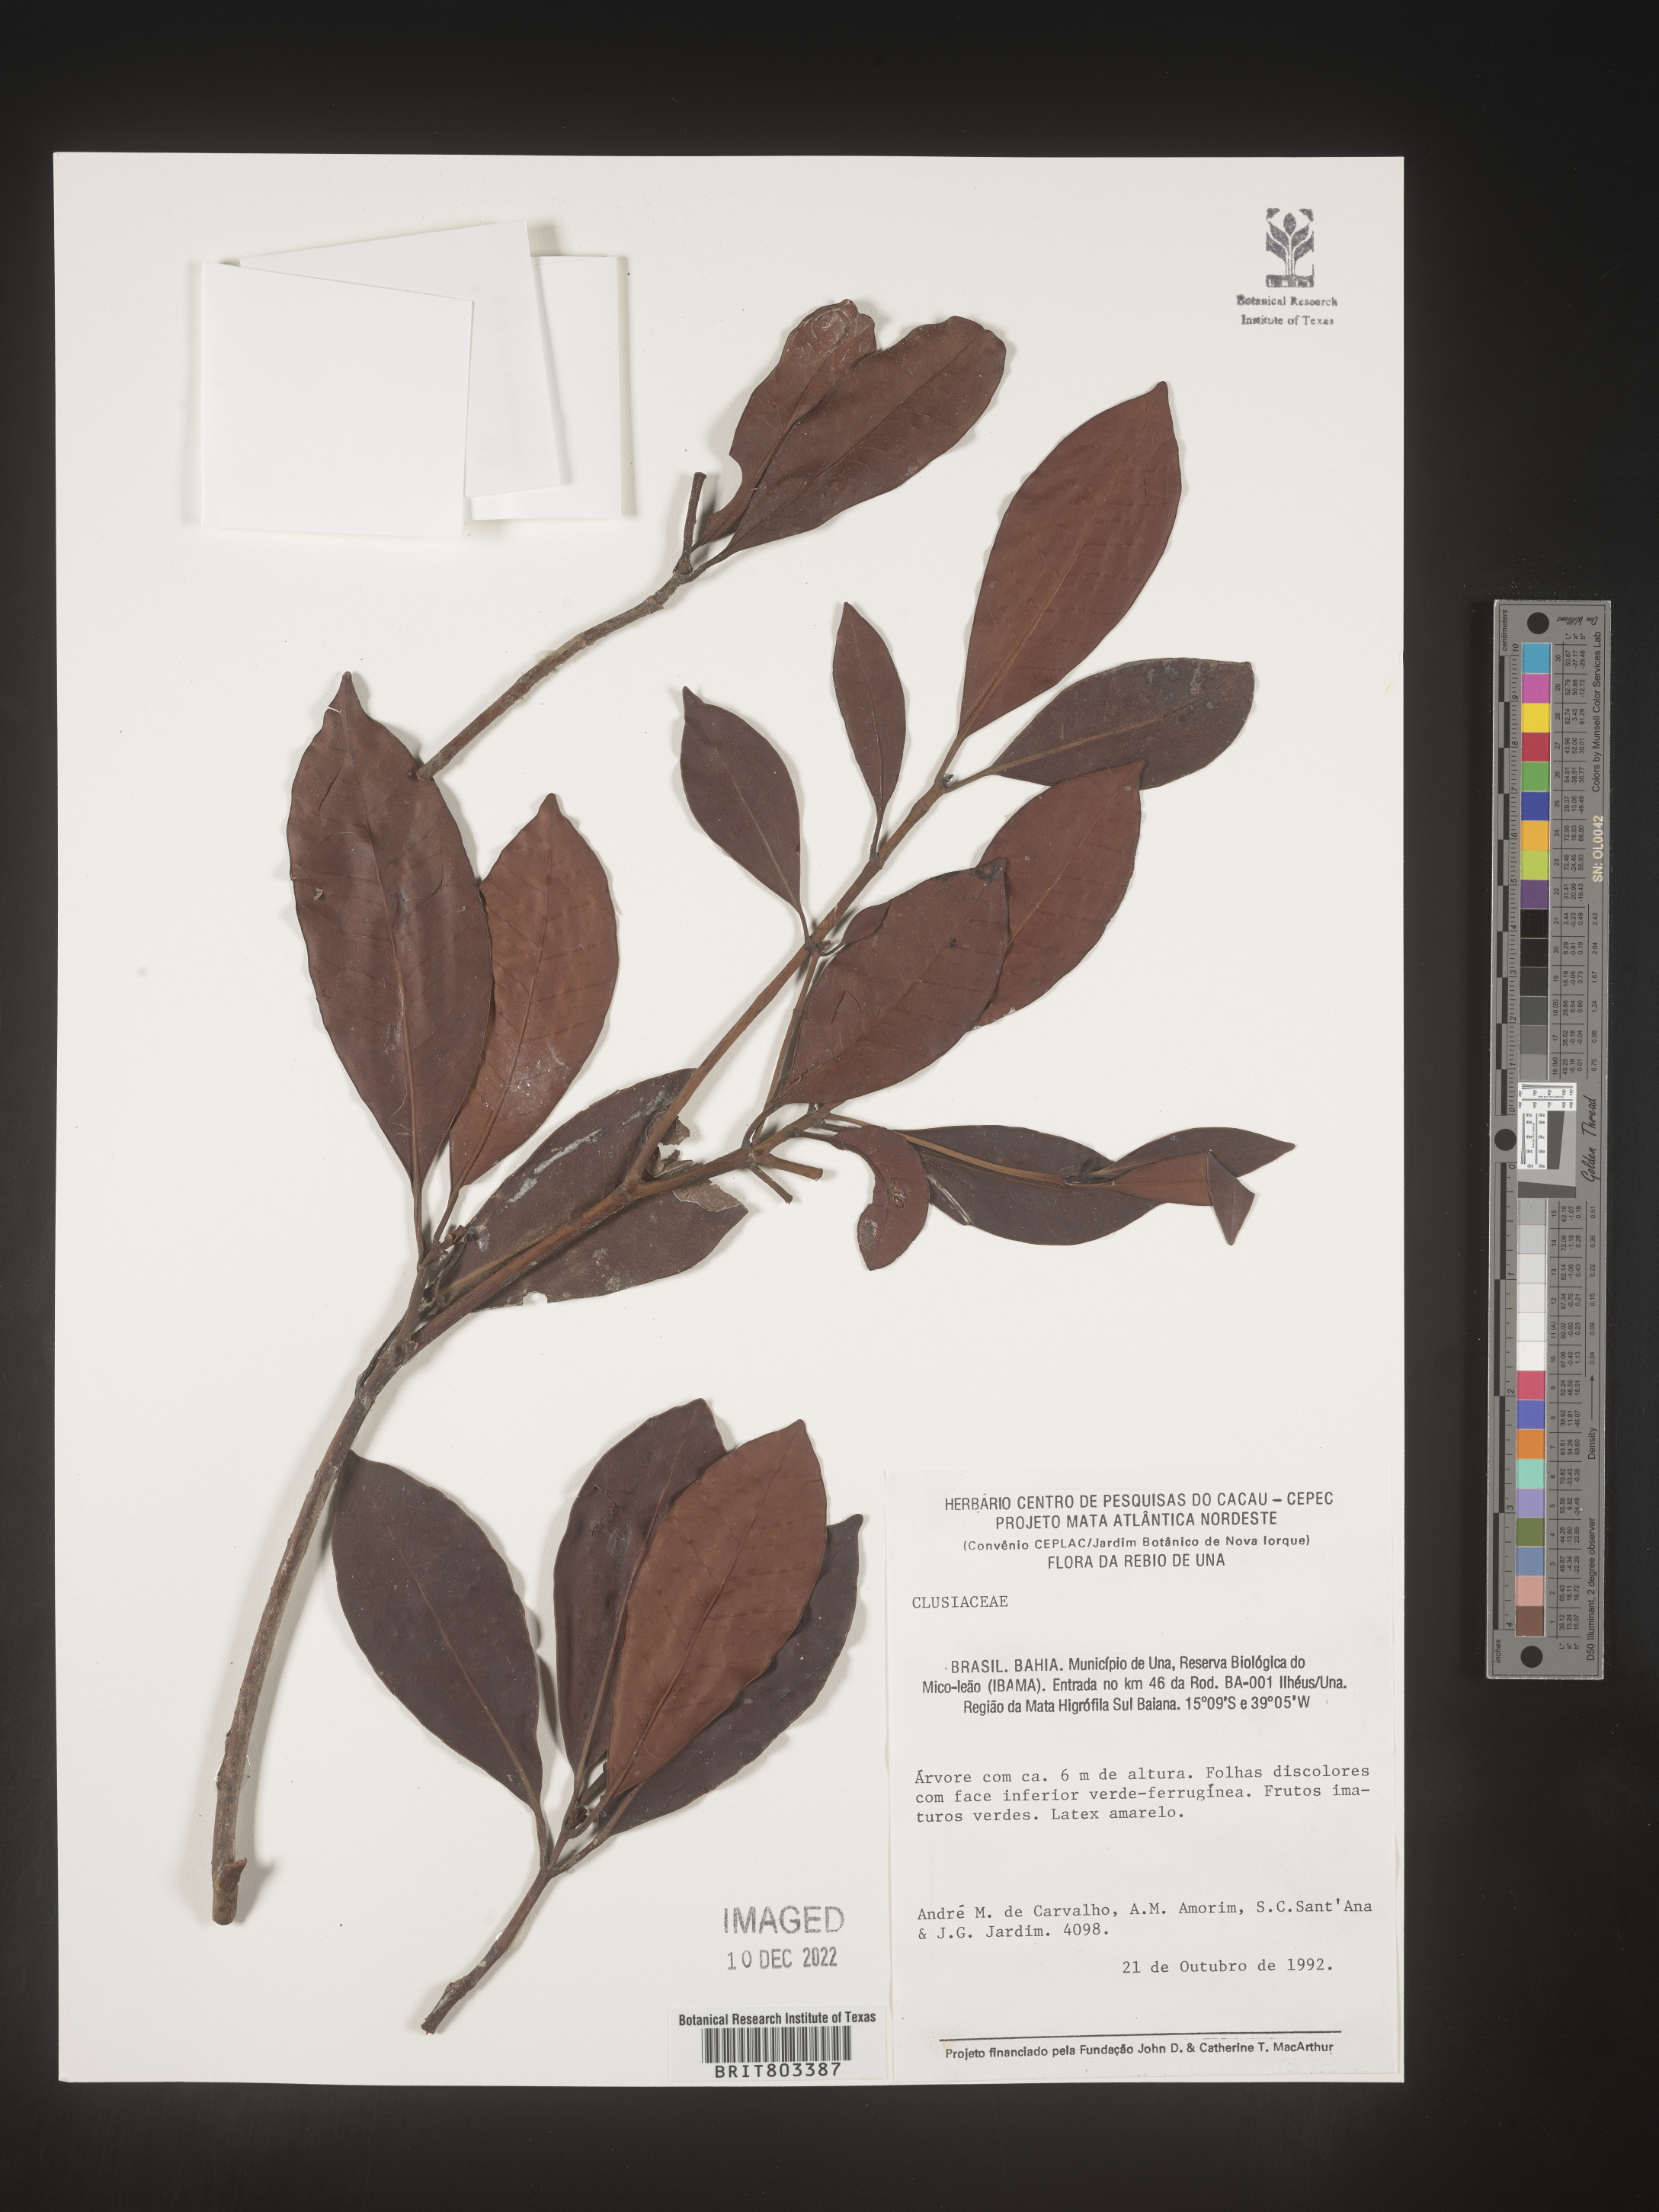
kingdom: Plantae
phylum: Tracheophyta
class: Magnoliopsida
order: Malpighiales
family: Clusiaceae
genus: Tovomita
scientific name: Tovomita
